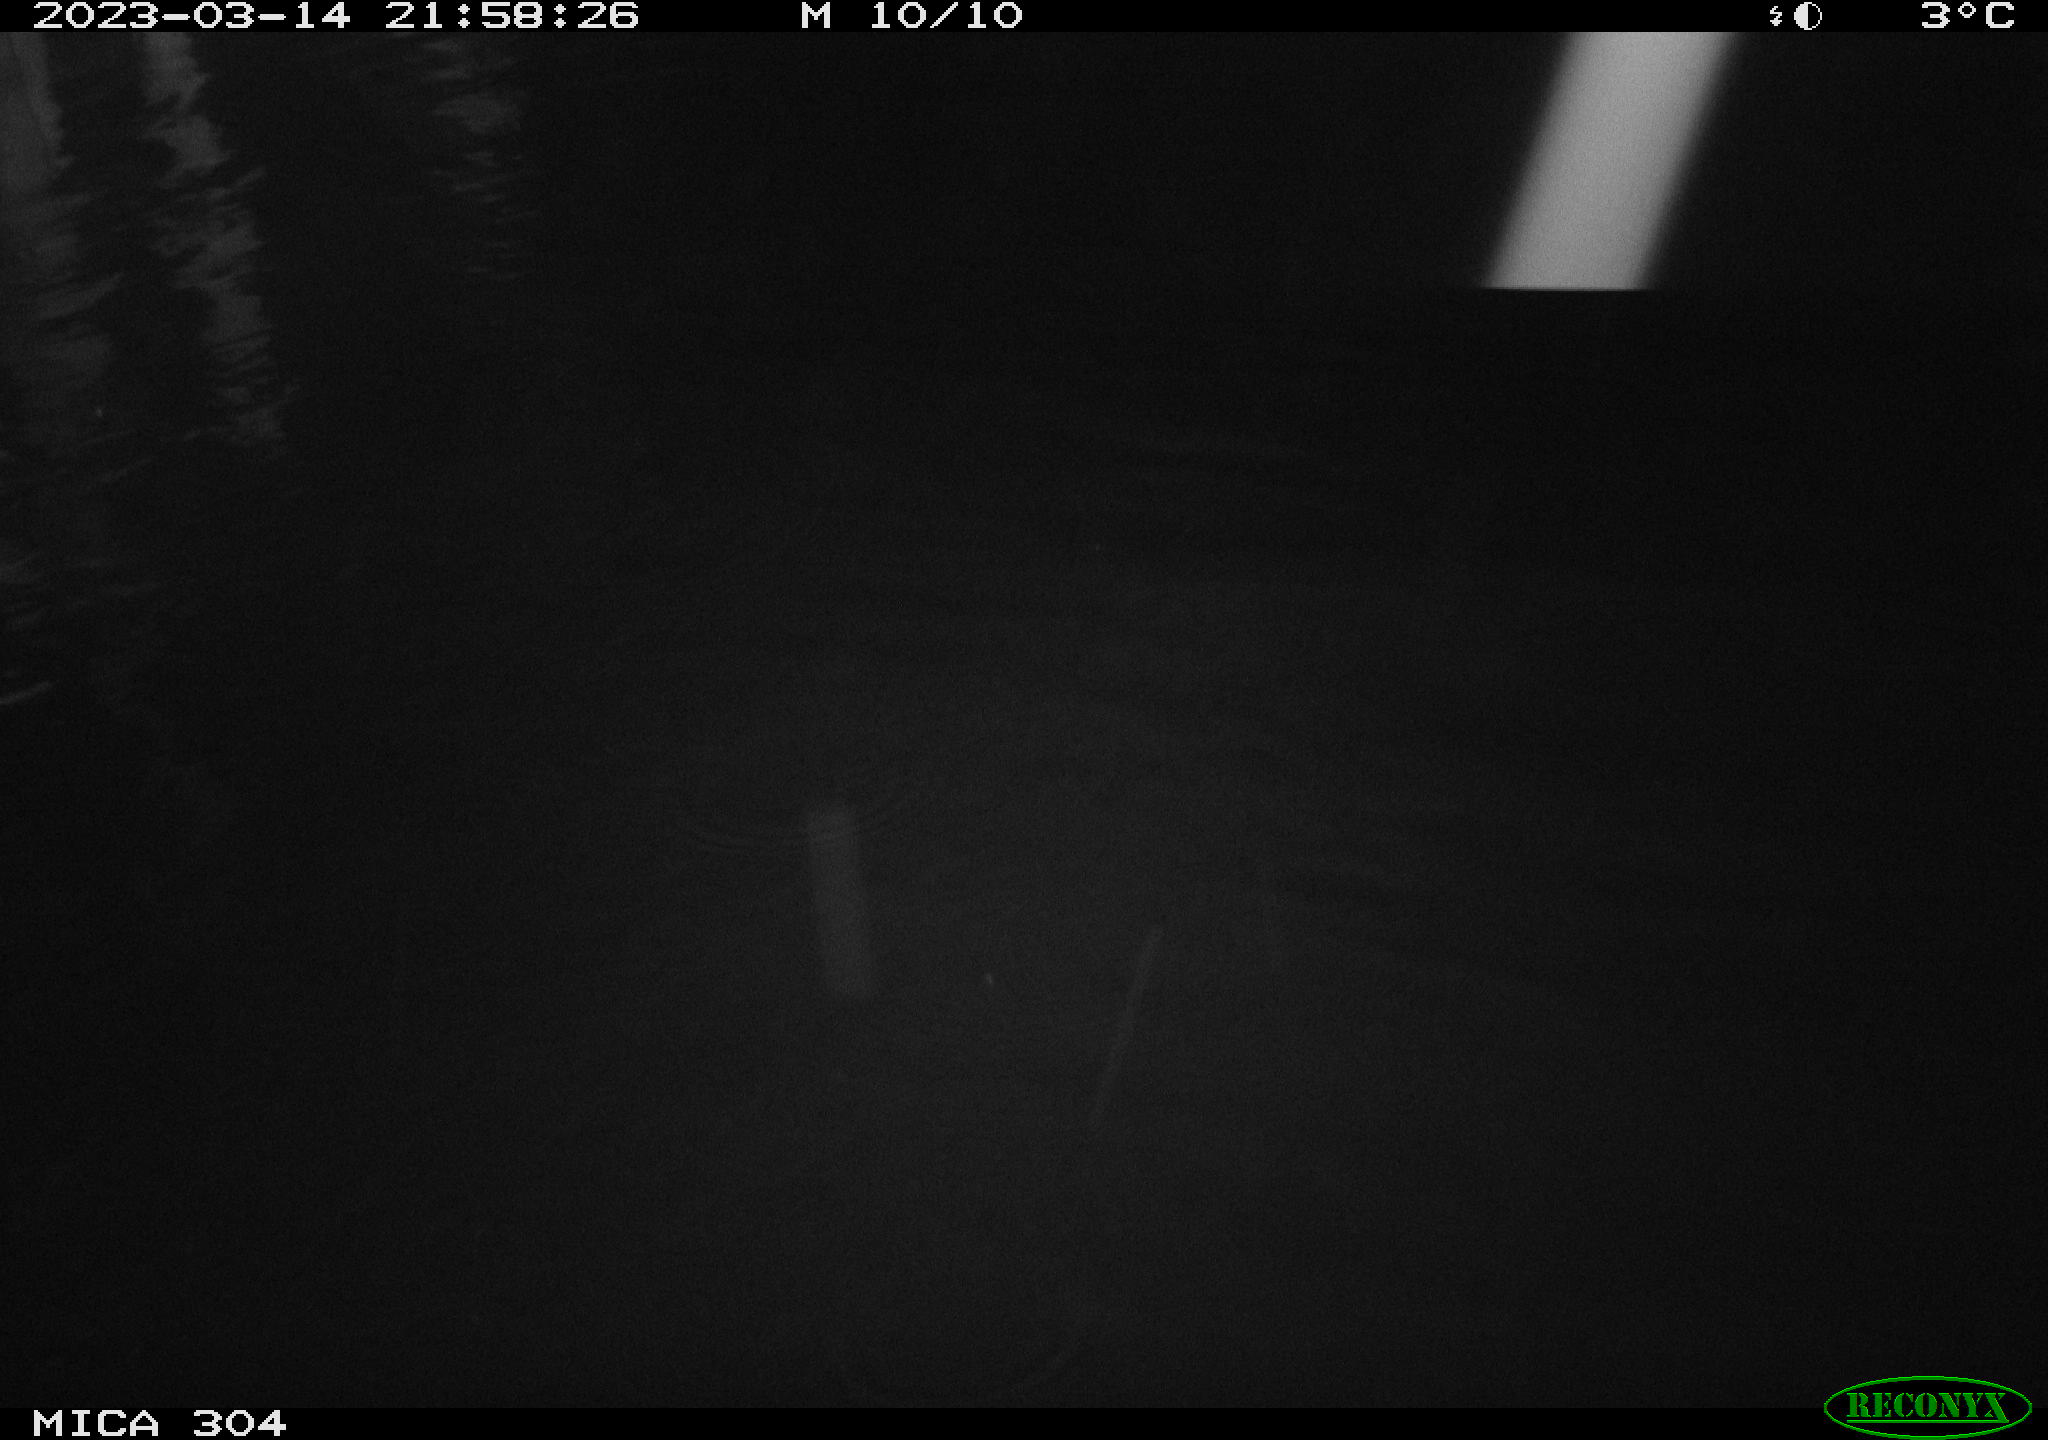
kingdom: Animalia
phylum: Chordata
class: Mammalia
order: Rodentia
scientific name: Rodentia
